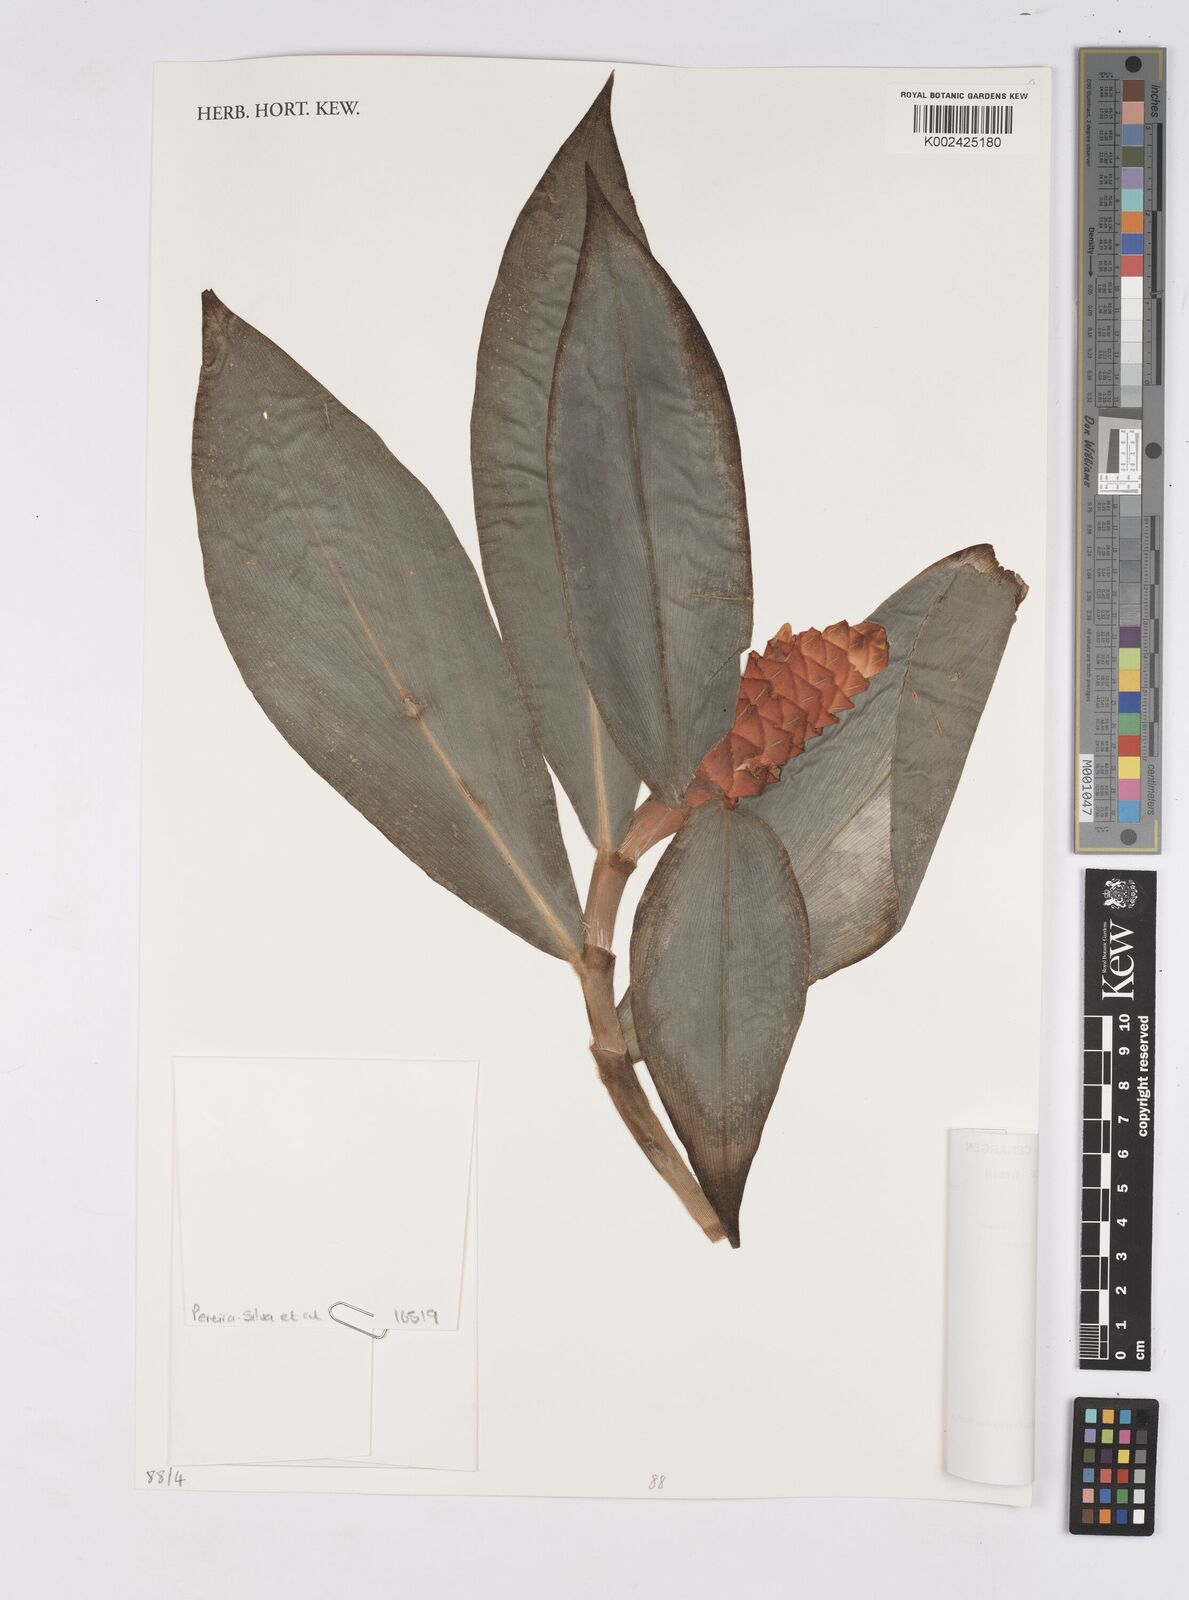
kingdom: Plantae
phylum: Tracheophyta
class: Liliopsida
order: Zingiberales
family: Costaceae
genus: Costus
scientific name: Costus scaber
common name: Spiral head ginger
